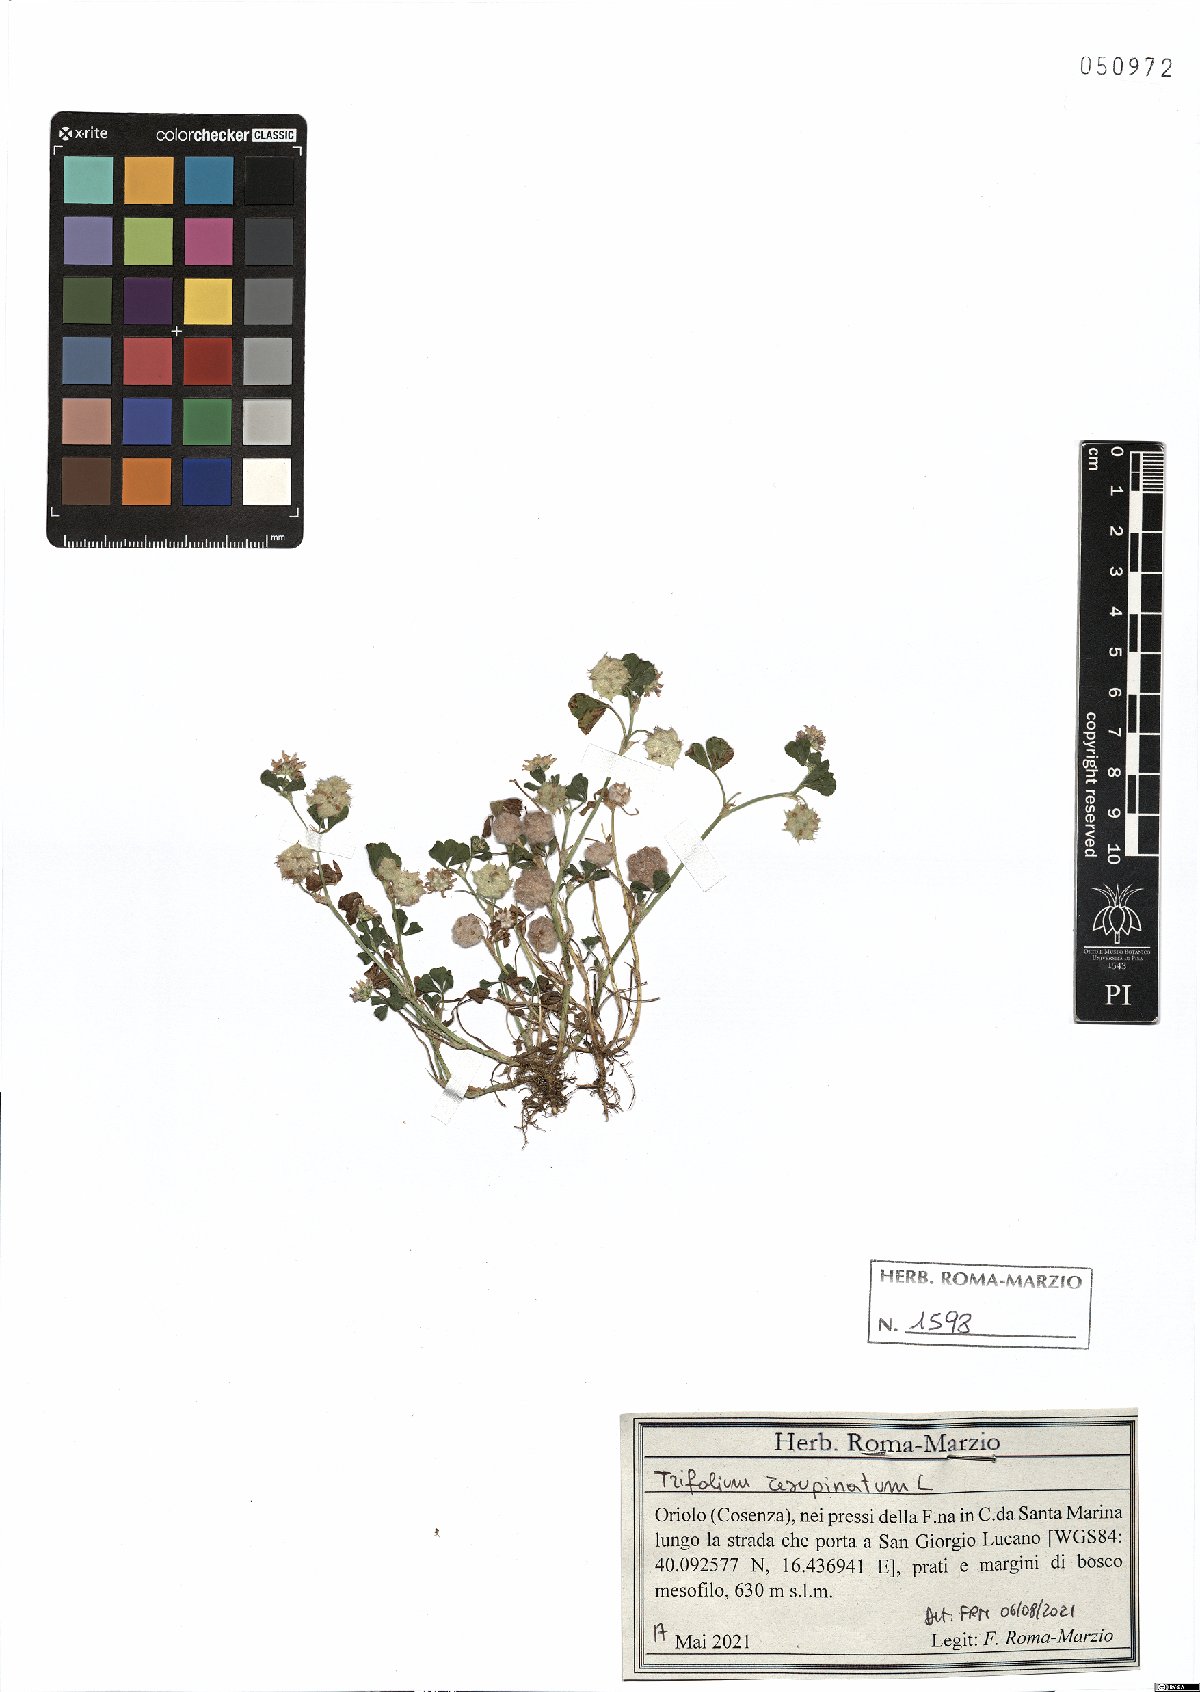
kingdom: Plantae
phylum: Tracheophyta
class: Magnoliopsida
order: Fabales
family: Fabaceae
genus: Trifolium
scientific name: Trifolium resupinatum
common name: Reversed clover
